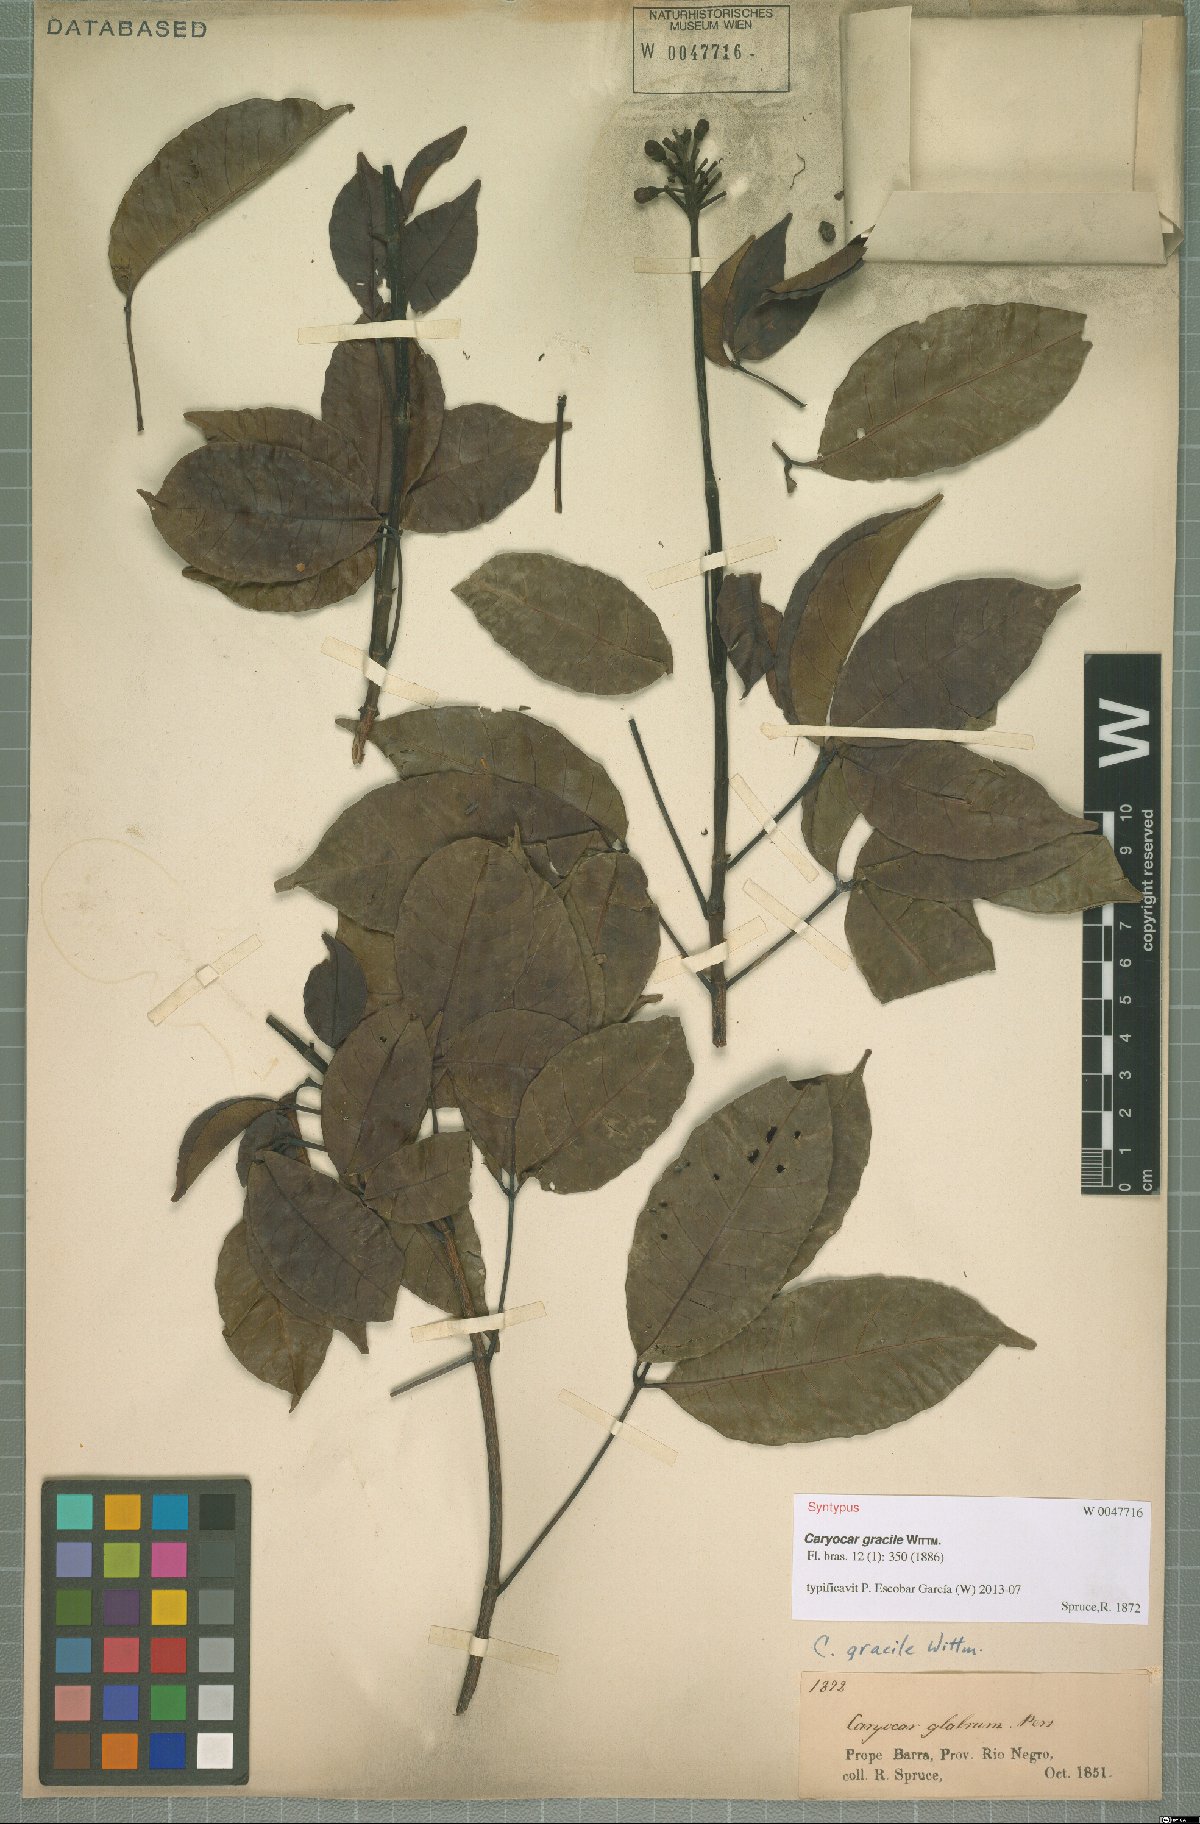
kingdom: Plantae
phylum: Tracheophyta
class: Magnoliopsida
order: Malpighiales
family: Caryocaraceae
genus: Caryocar
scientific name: Caryocar gracile
